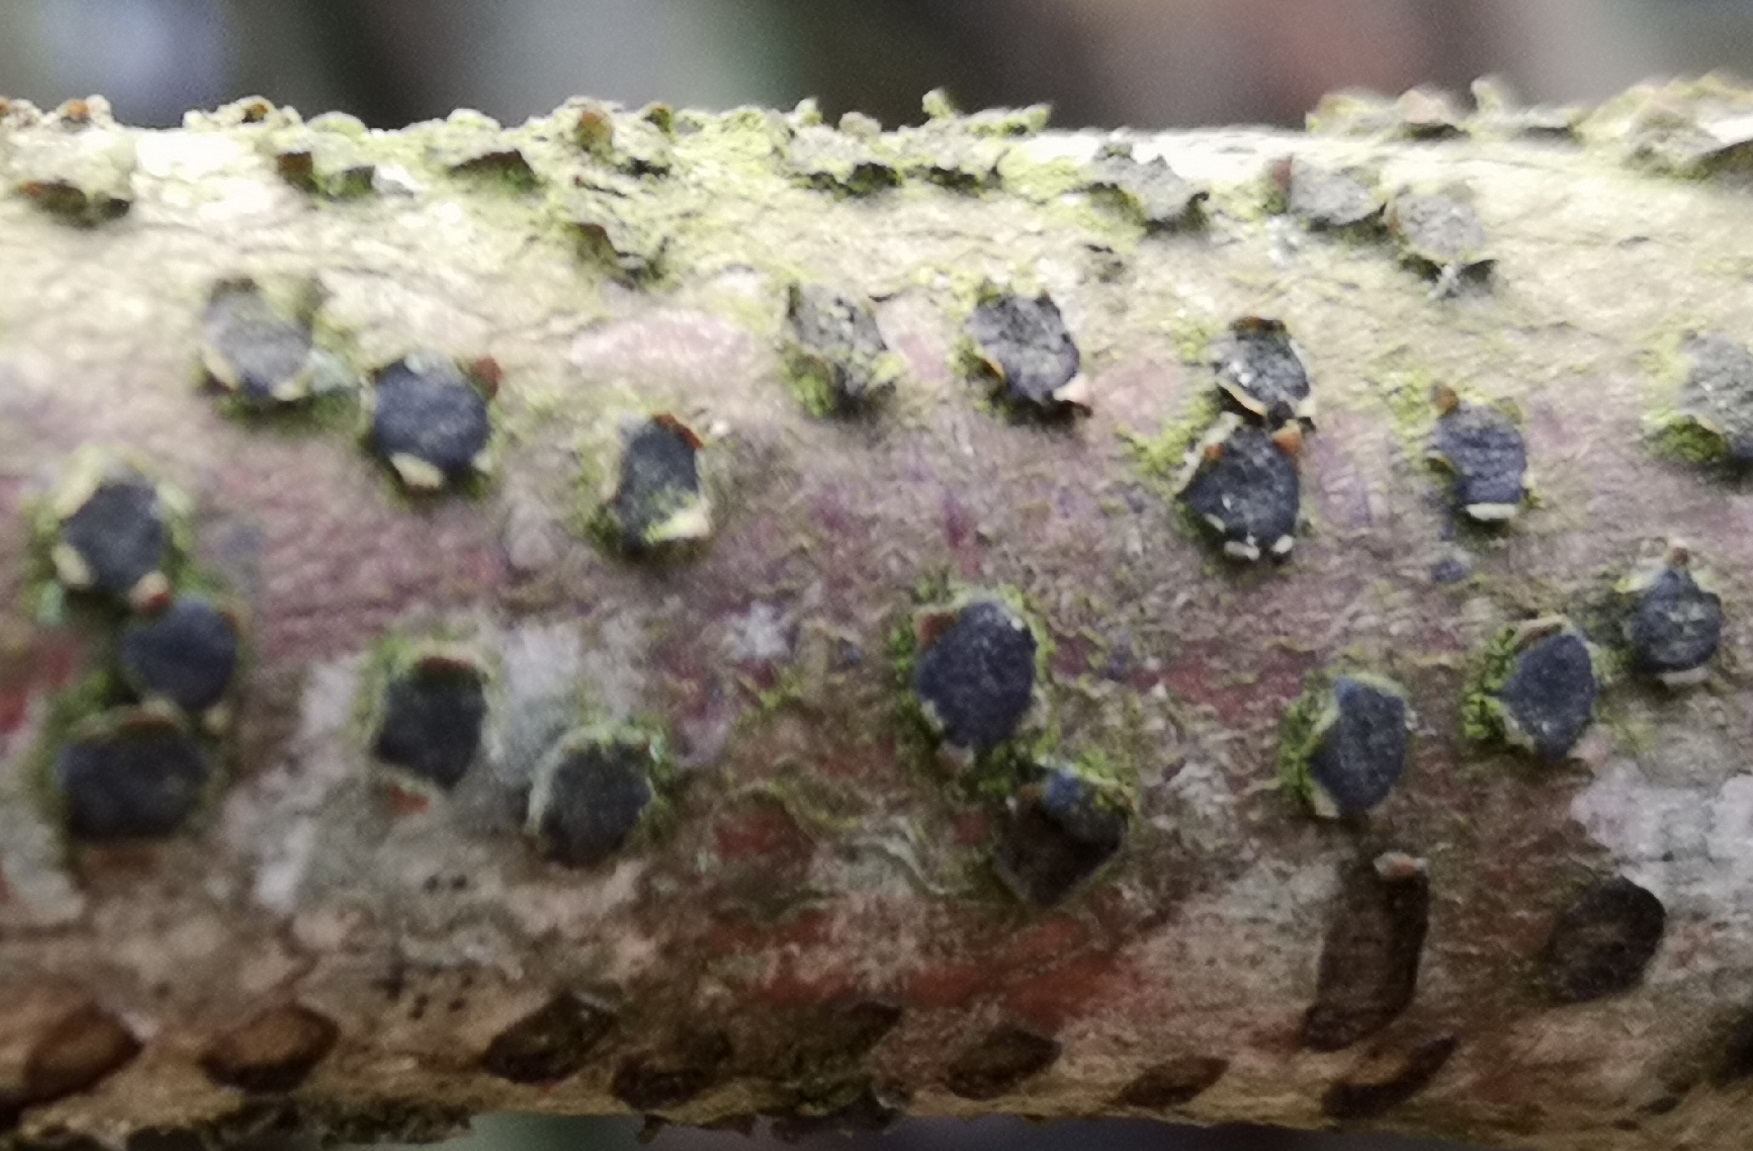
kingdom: Fungi
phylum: Ascomycota
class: Sordariomycetes
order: Xylariales
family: Diatrypaceae
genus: Diatrype
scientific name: Diatrype disciformis
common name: kant-kulskorpe
